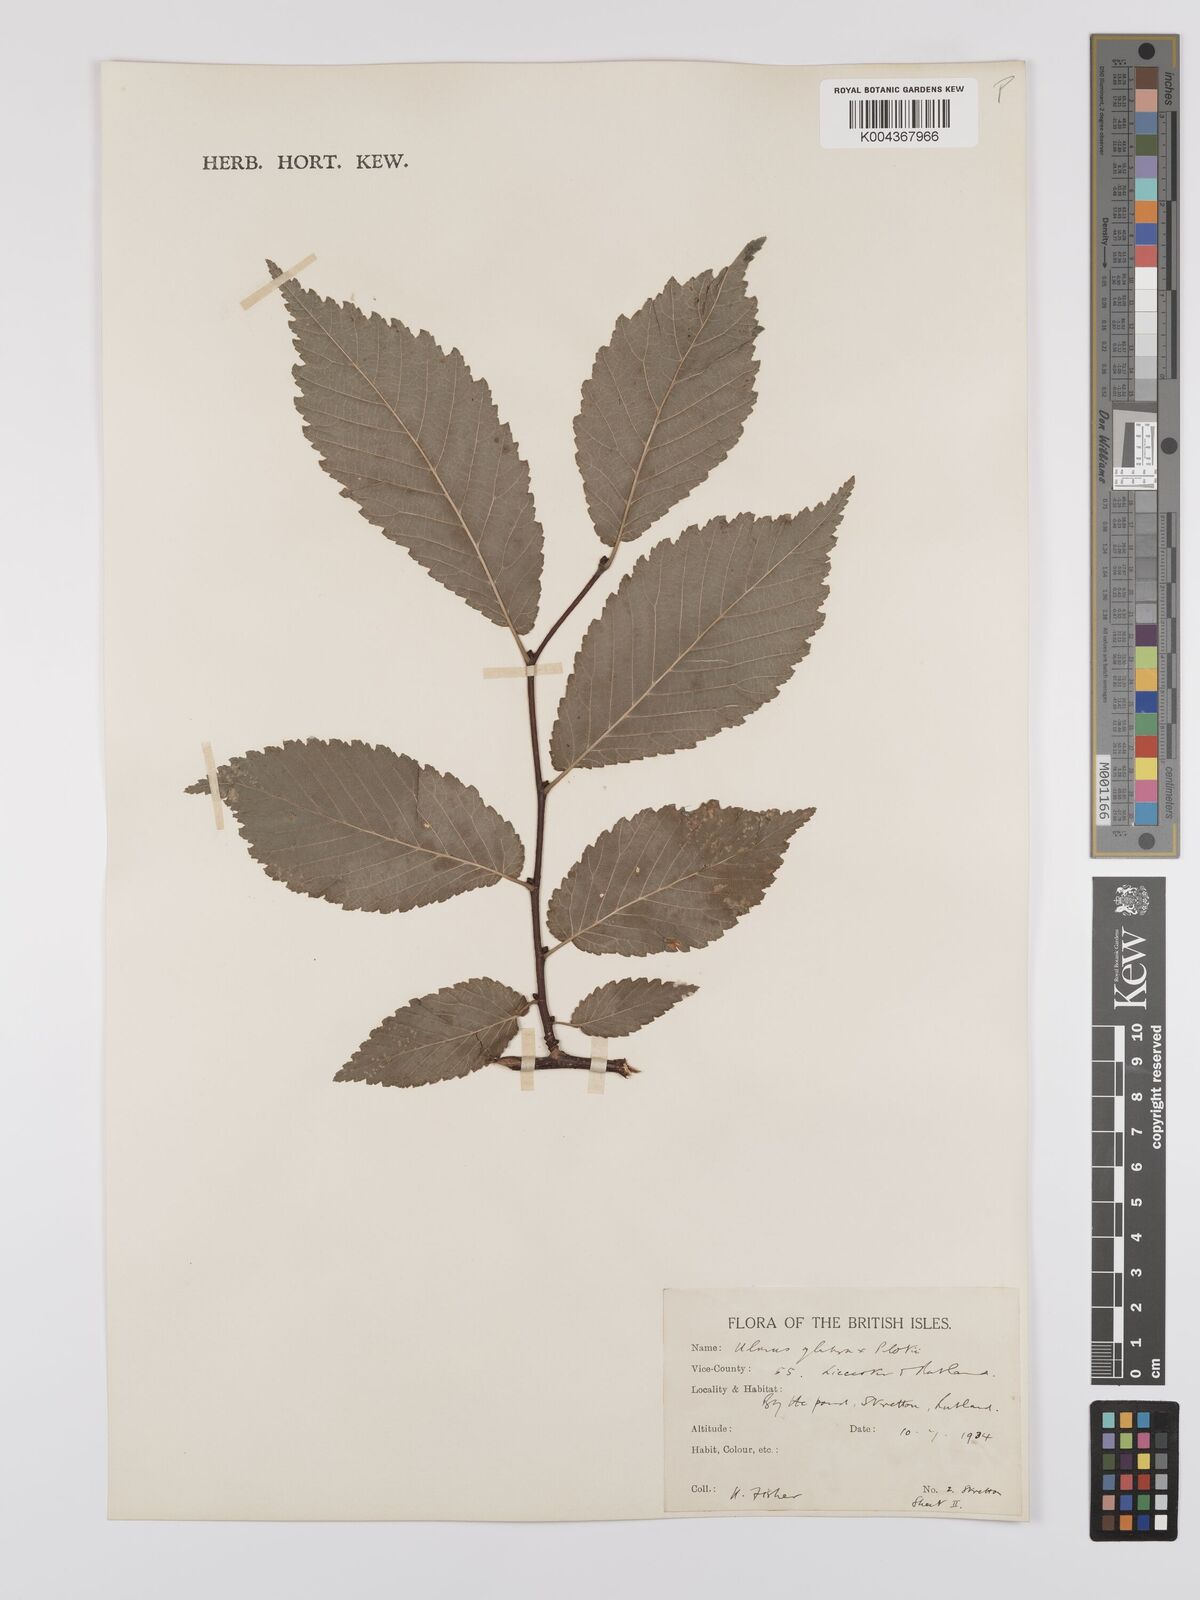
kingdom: Plantae
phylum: Tracheophyta
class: Magnoliopsida
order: Rosales
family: Ulmaceae
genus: Ulmus
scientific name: Ulmus glabra
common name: Wych elm
